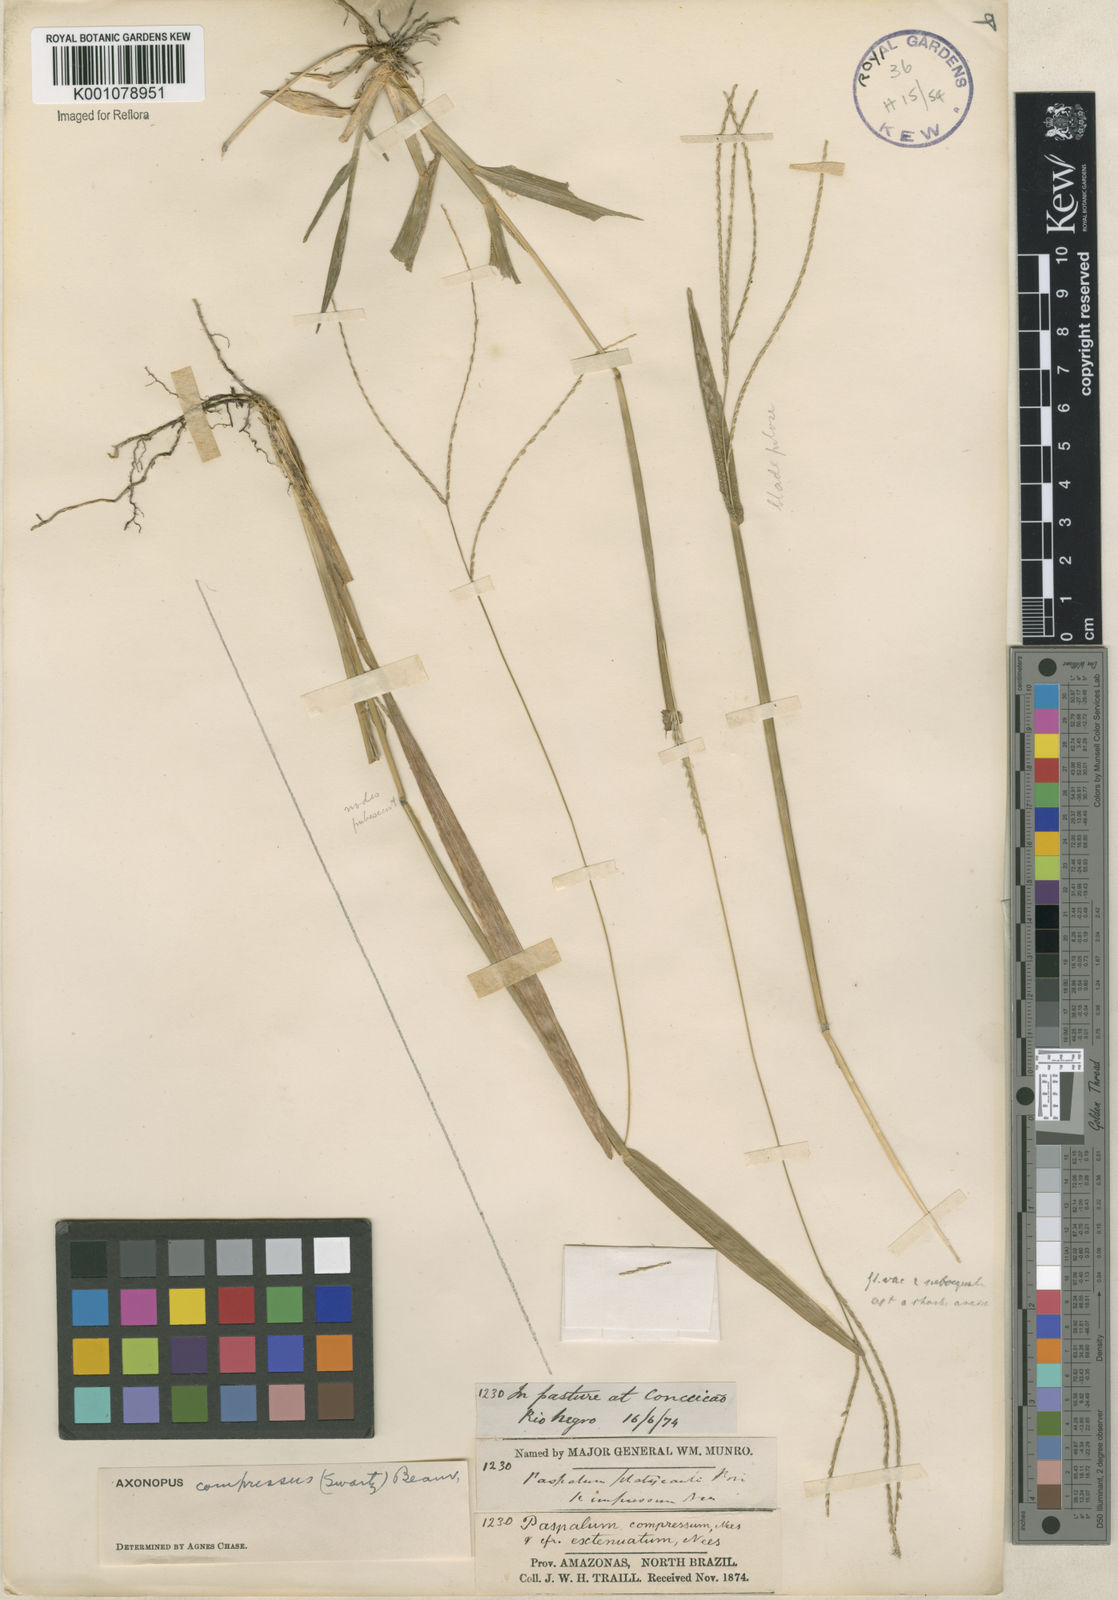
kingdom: Plantae
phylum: Tracheophyta
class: Liliopsida
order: Poales
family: Poaceae
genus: Axonopus
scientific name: Axonopus compressus
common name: American carpet grass
